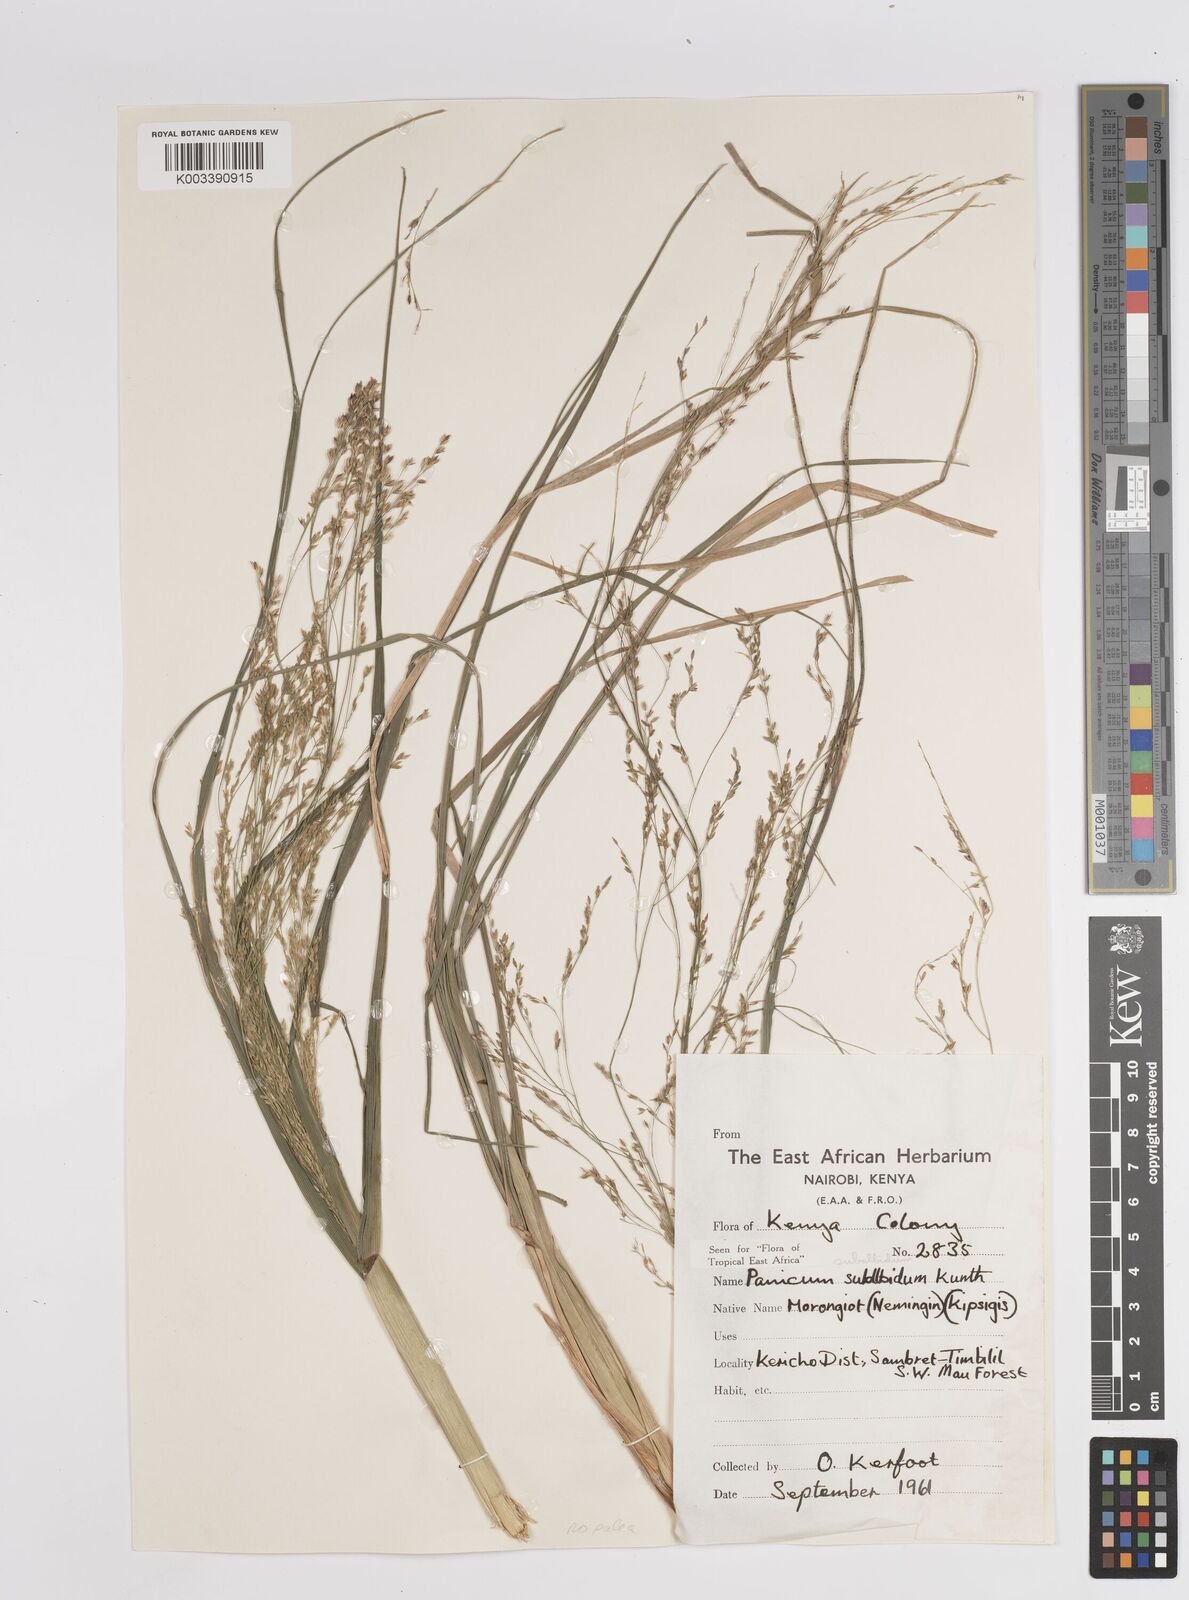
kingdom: Plantae
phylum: Tracheophyta
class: Liliopsida
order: Poales
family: Poaceae
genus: Panicum
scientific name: Panicum subalbidum
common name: Elbow buffalo grass
